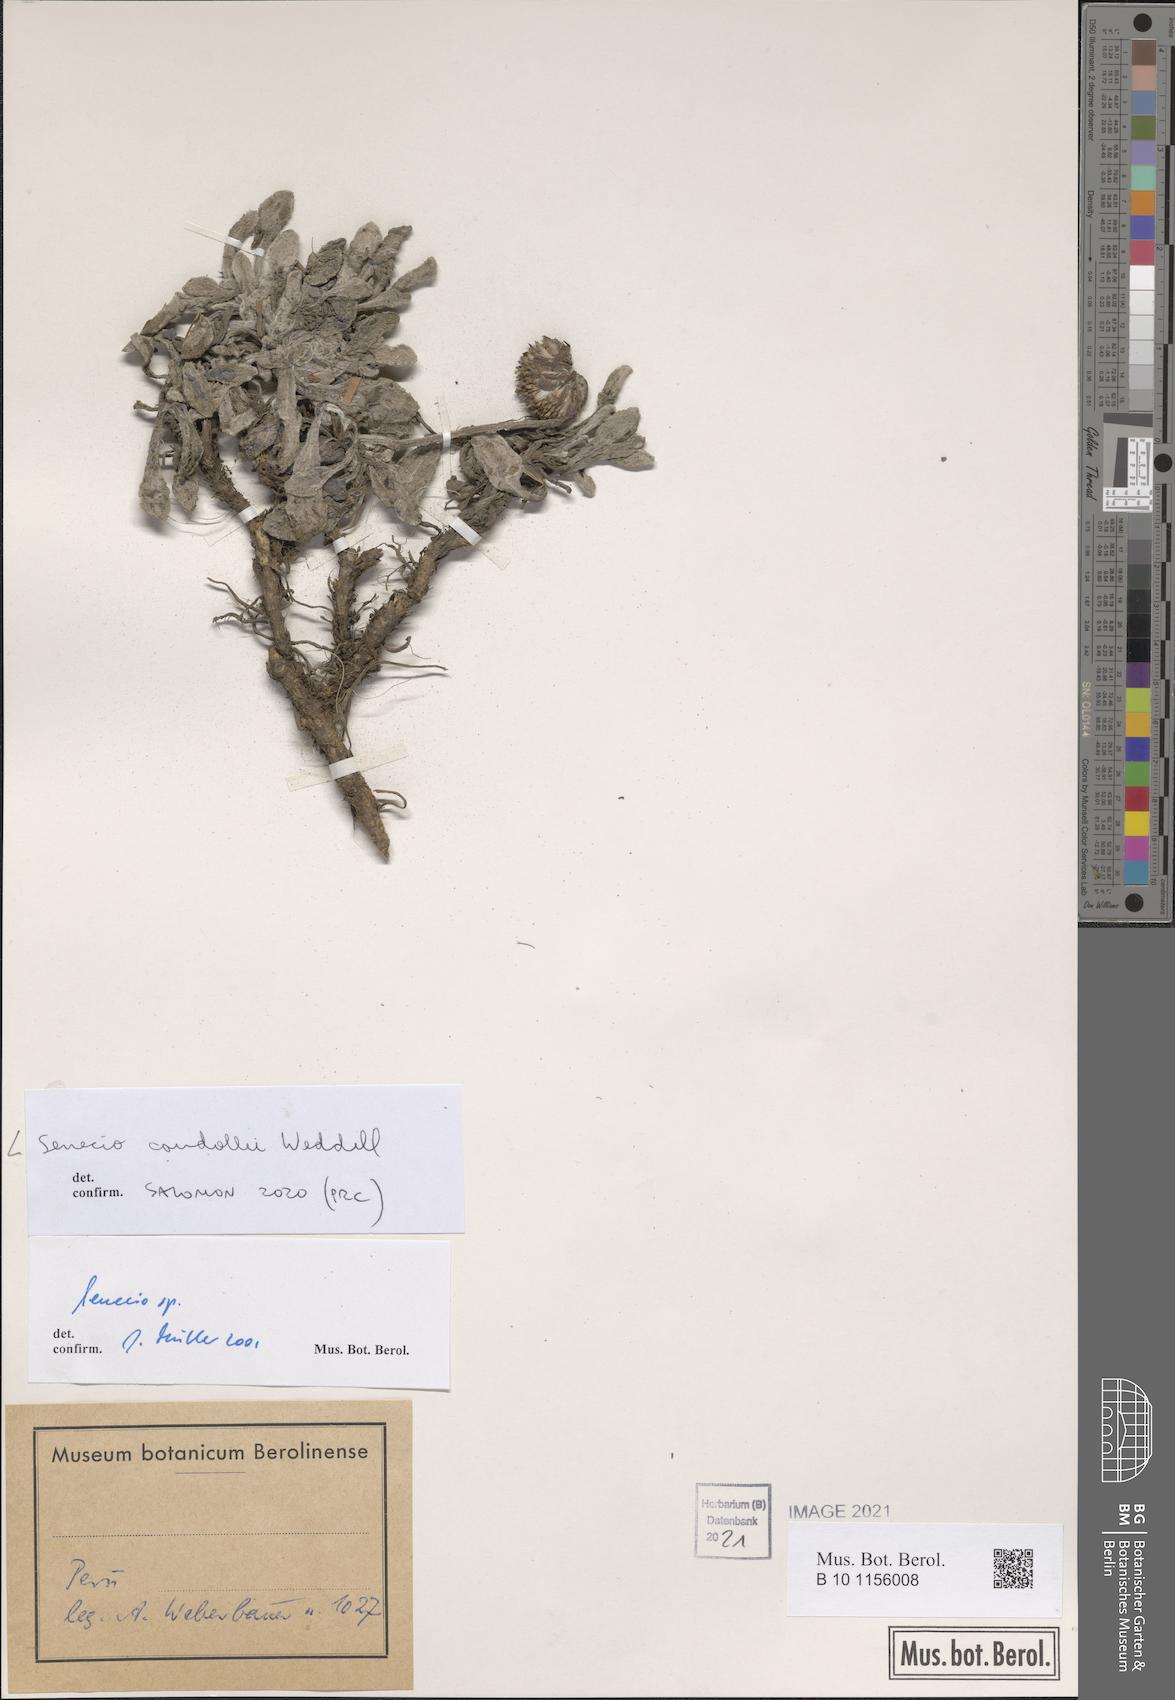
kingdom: Plantae
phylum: Tracheophyta
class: Magnoliopsida
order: Asterales
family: Asteraceae
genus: Culcitium
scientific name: Culcitium humile
